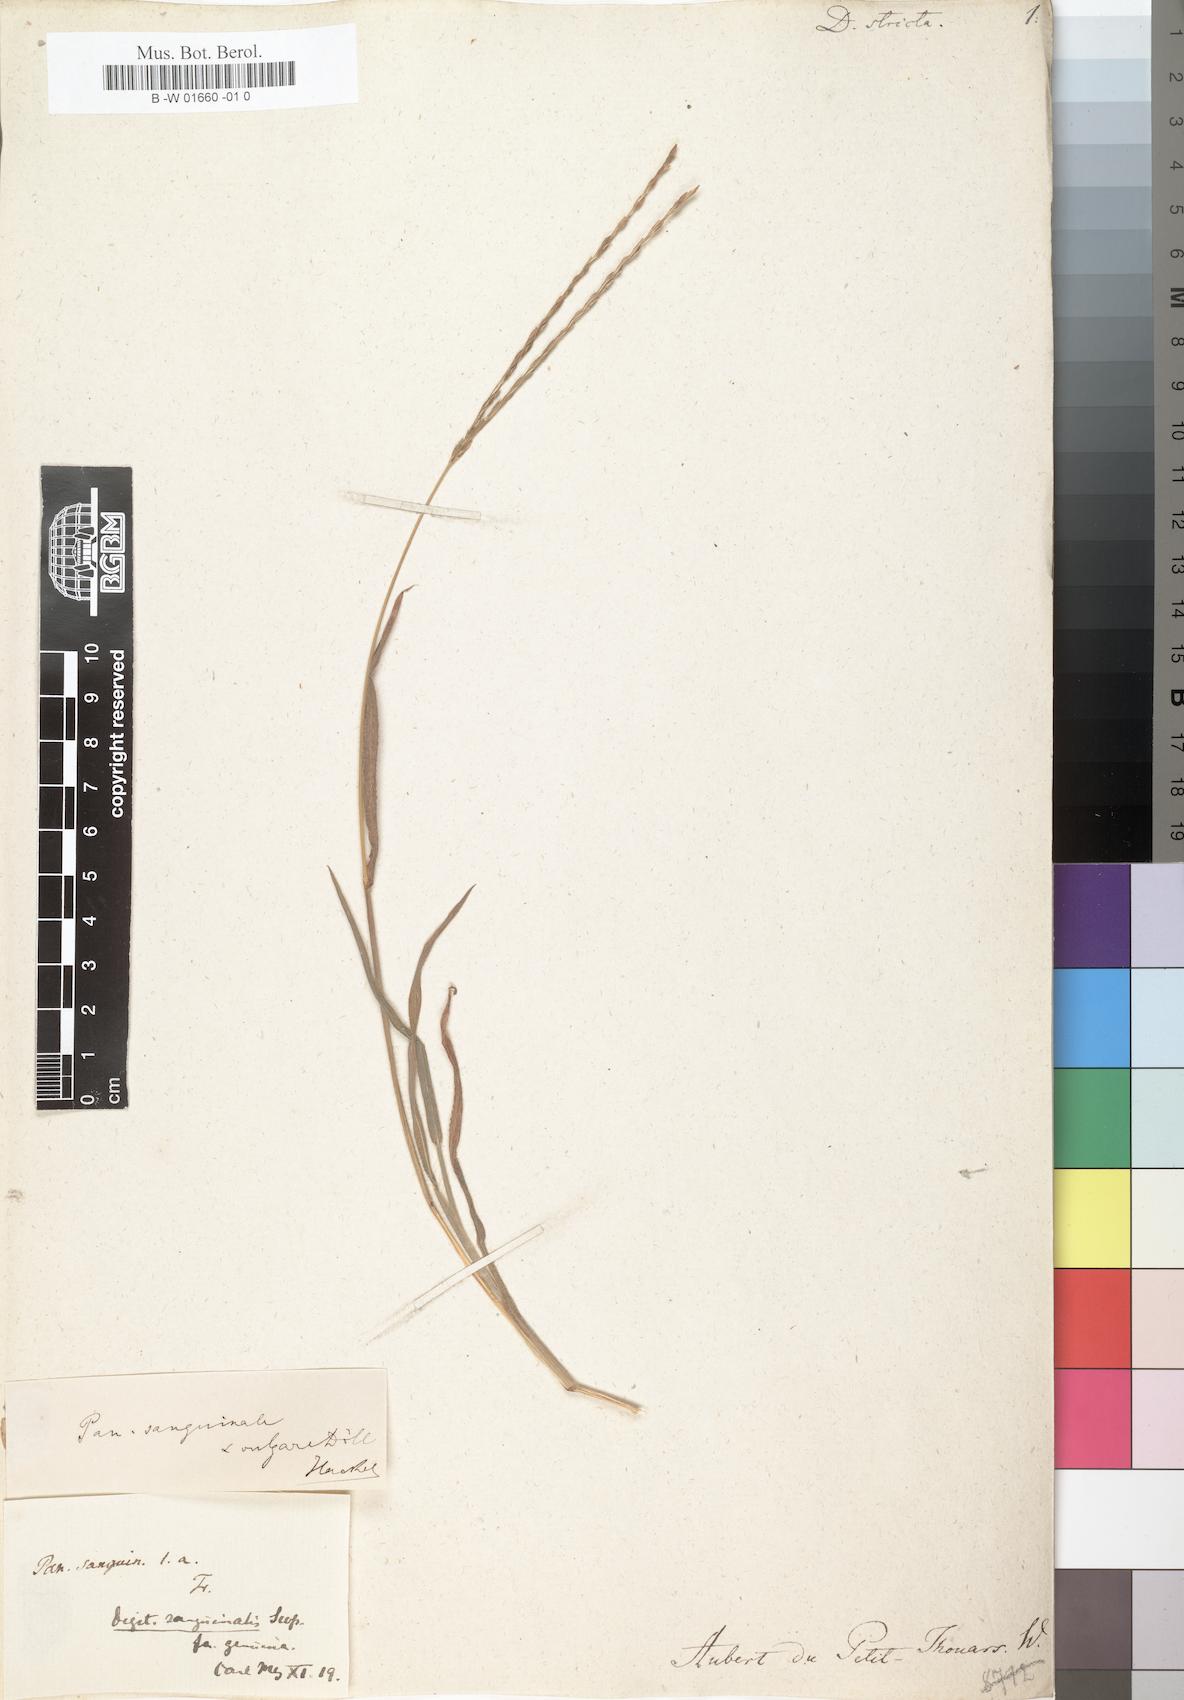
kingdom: Plantae
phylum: Tracheophyta
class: Liliopsida
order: Poales
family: Poaceae
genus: Digitaria
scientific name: Digitaria stricta
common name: Crabgrass
